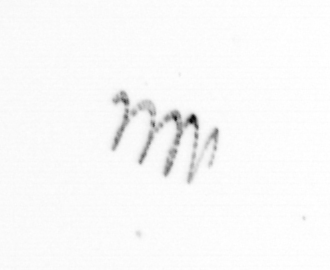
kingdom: Chromista
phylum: Ochrophyta
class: Bacillariophyceae
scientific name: Bacillariophyceae
